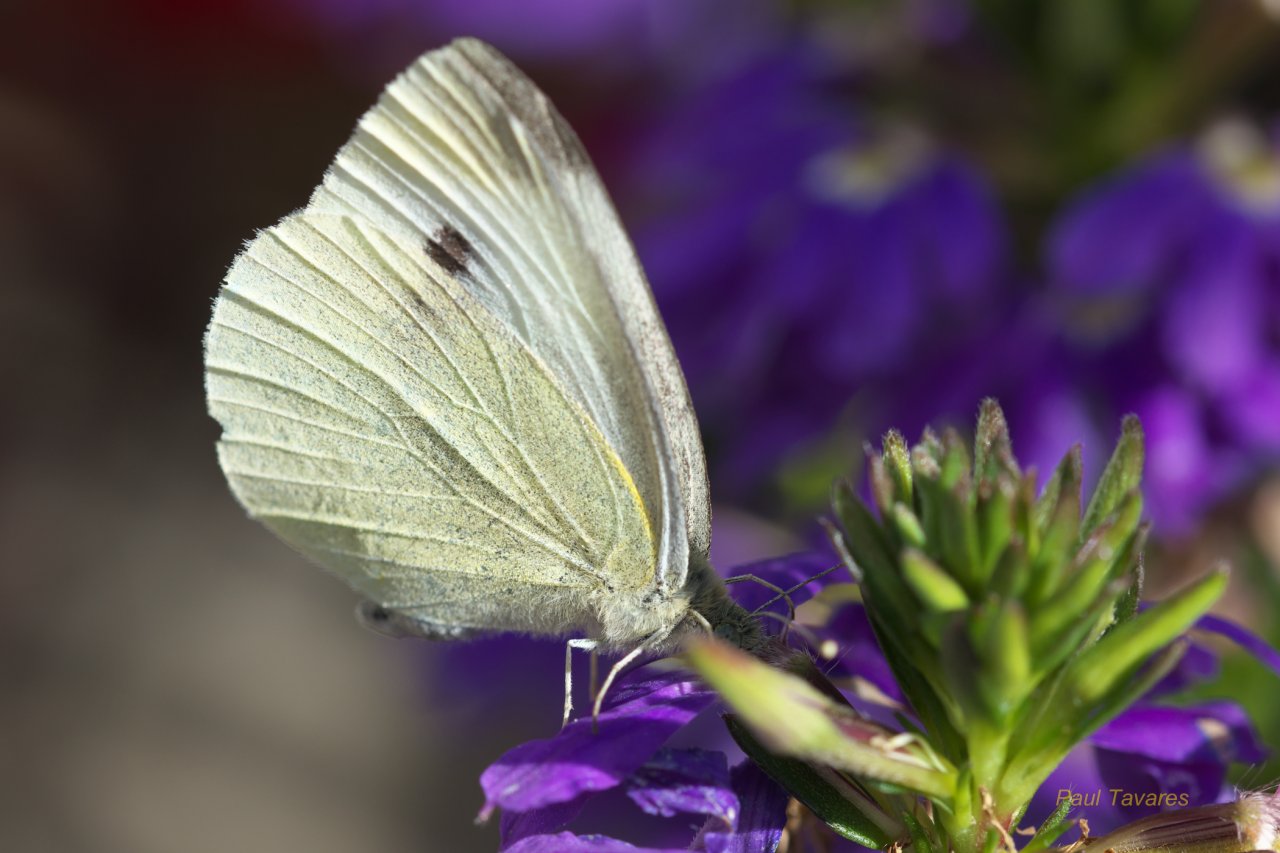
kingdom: Animalia
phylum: Arthropoda
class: Insecta
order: Lepidoptera
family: Pieridae
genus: Pieris
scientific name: Pieris rapae
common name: Cabbage White
